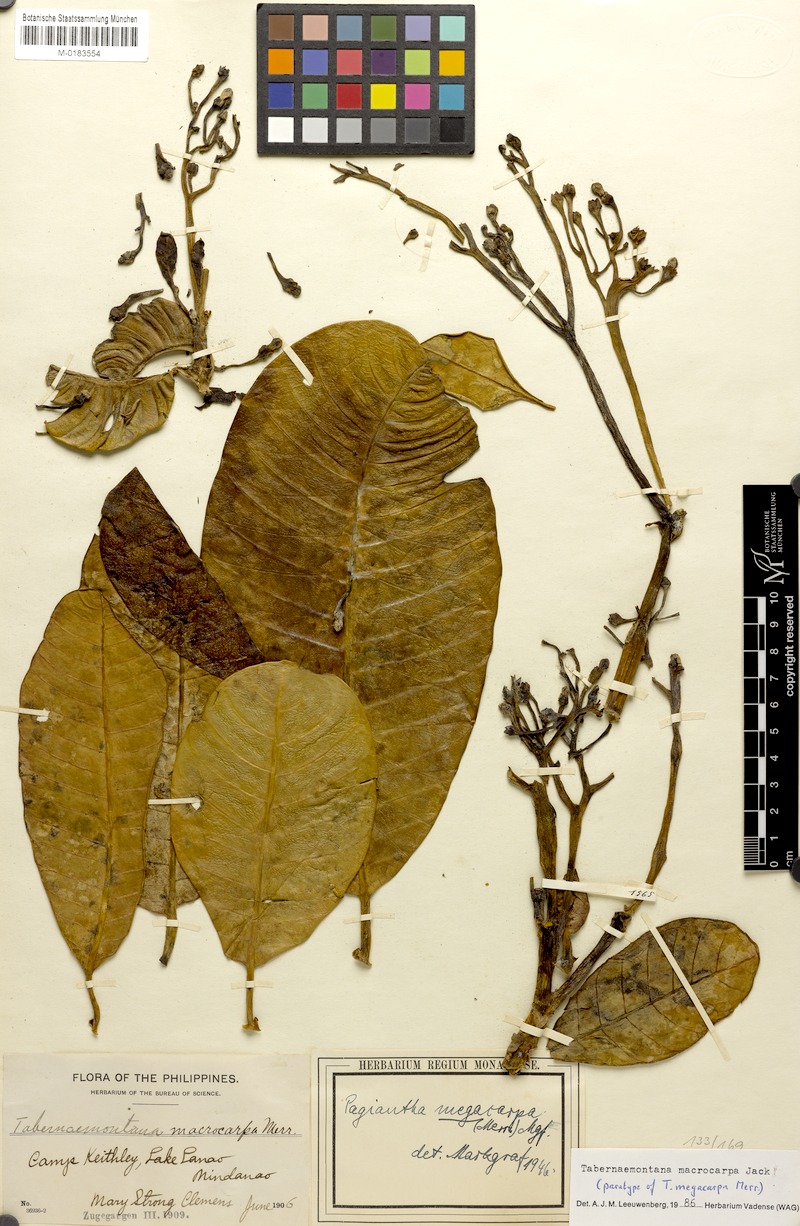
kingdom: Plantae
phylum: Tracheophyta
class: Magnoliopsida
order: Gentianales
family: Apocynaceae
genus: Tabernaemontana
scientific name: Tabernaemontana macrocarpa
